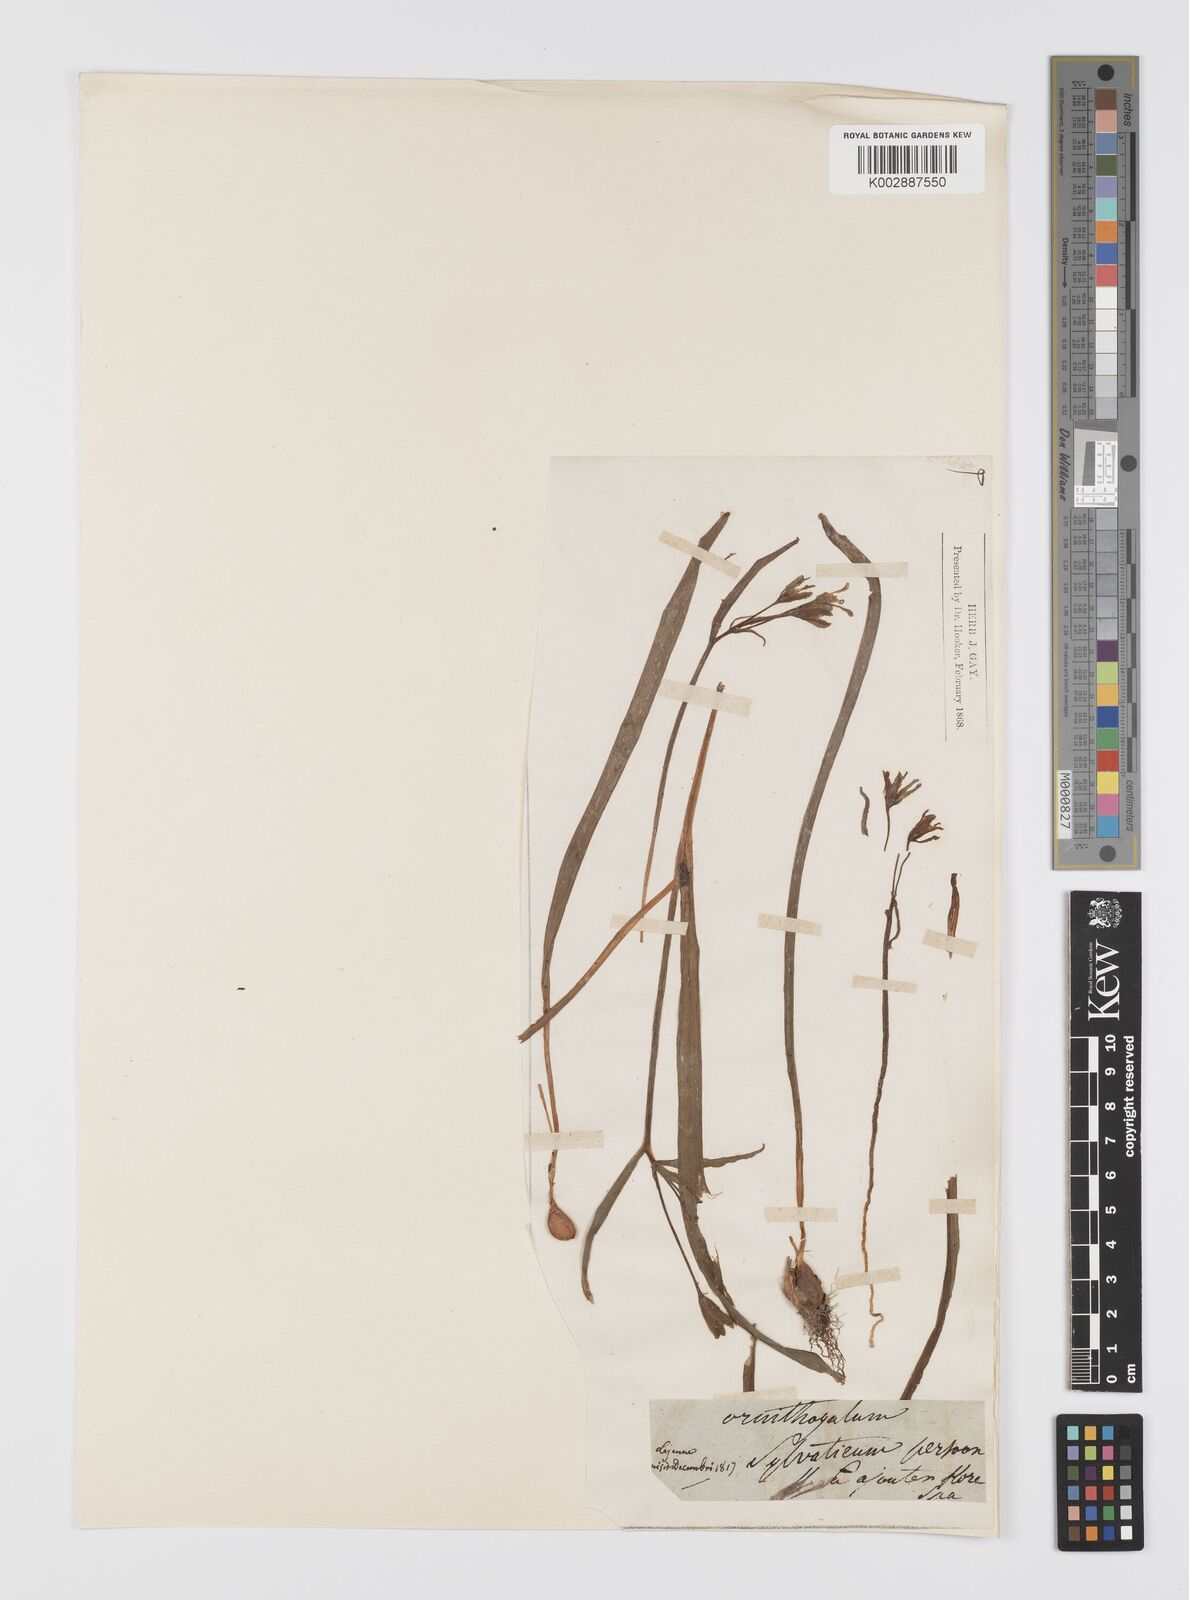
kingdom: Plantae
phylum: Tracheophyta
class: Liliopsida
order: Liliales
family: Liliaceae
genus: Gagea
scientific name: Gagea lutea
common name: Yellow star-of-bethlehem
